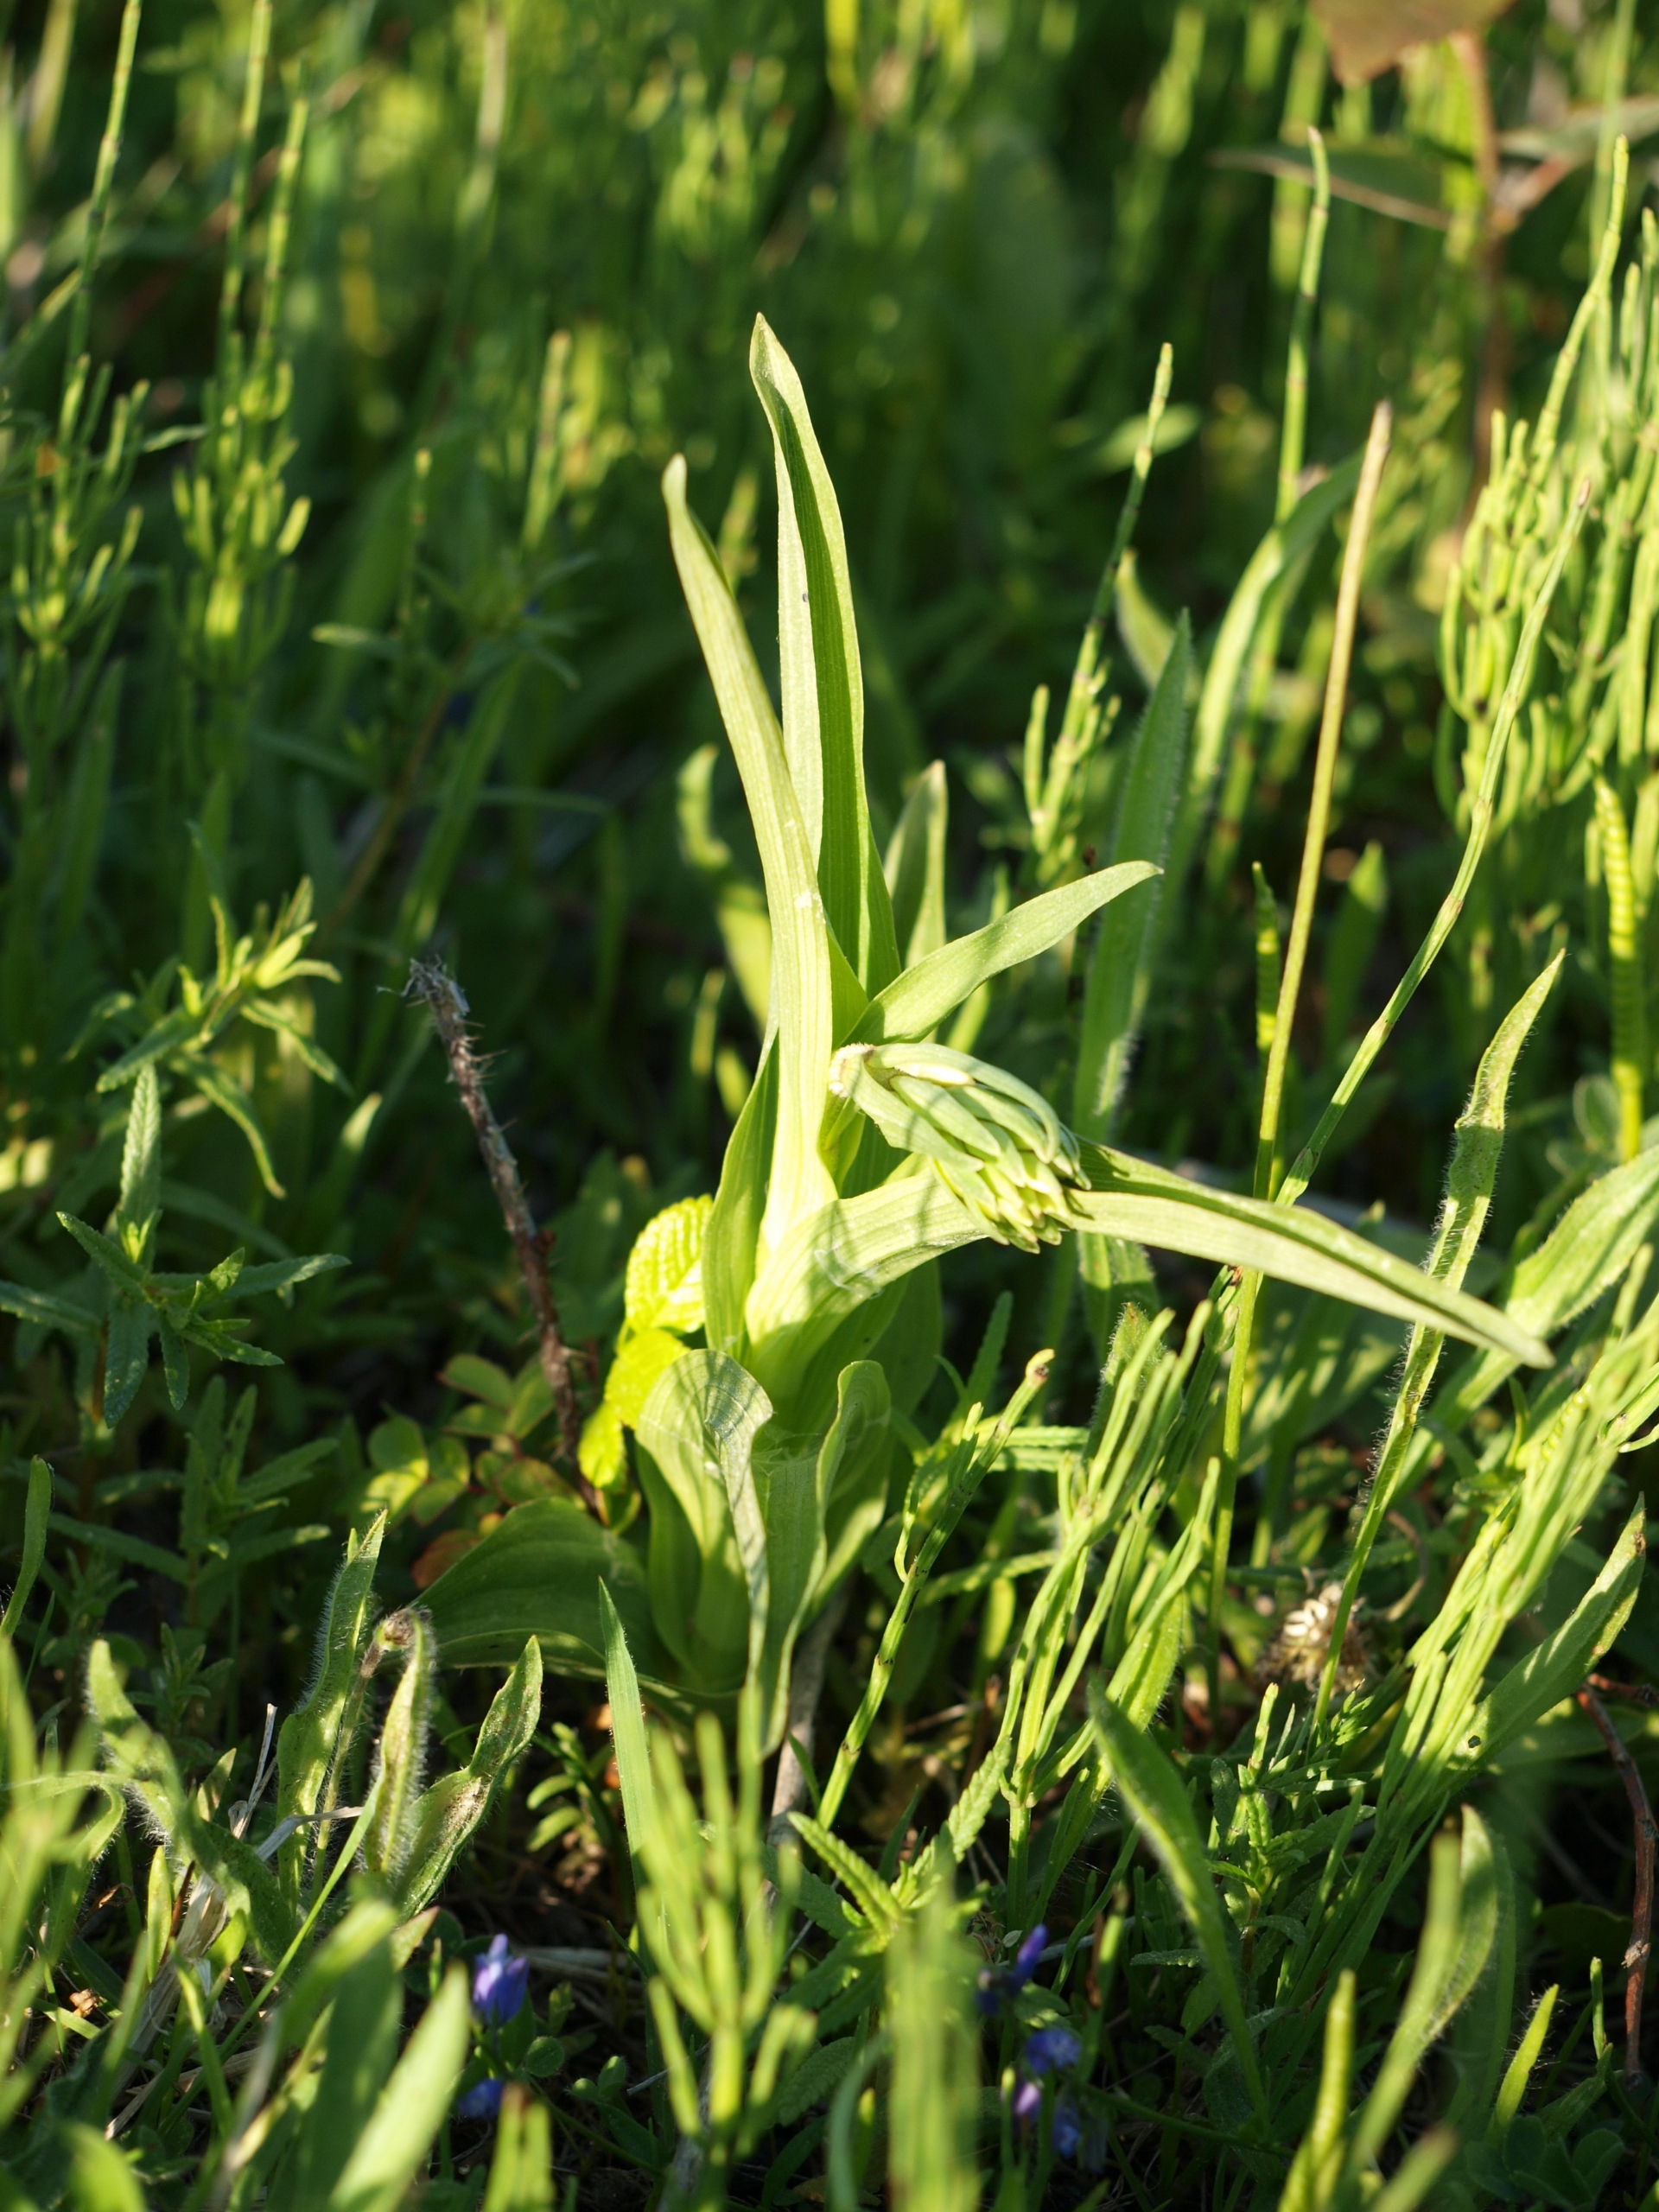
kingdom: Plantae
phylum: Tracheophyta
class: Liliopsida
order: Asparagales
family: Orchidaceae
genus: Epipactis
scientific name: Epipactis palustris
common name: Sump-hullæbe
